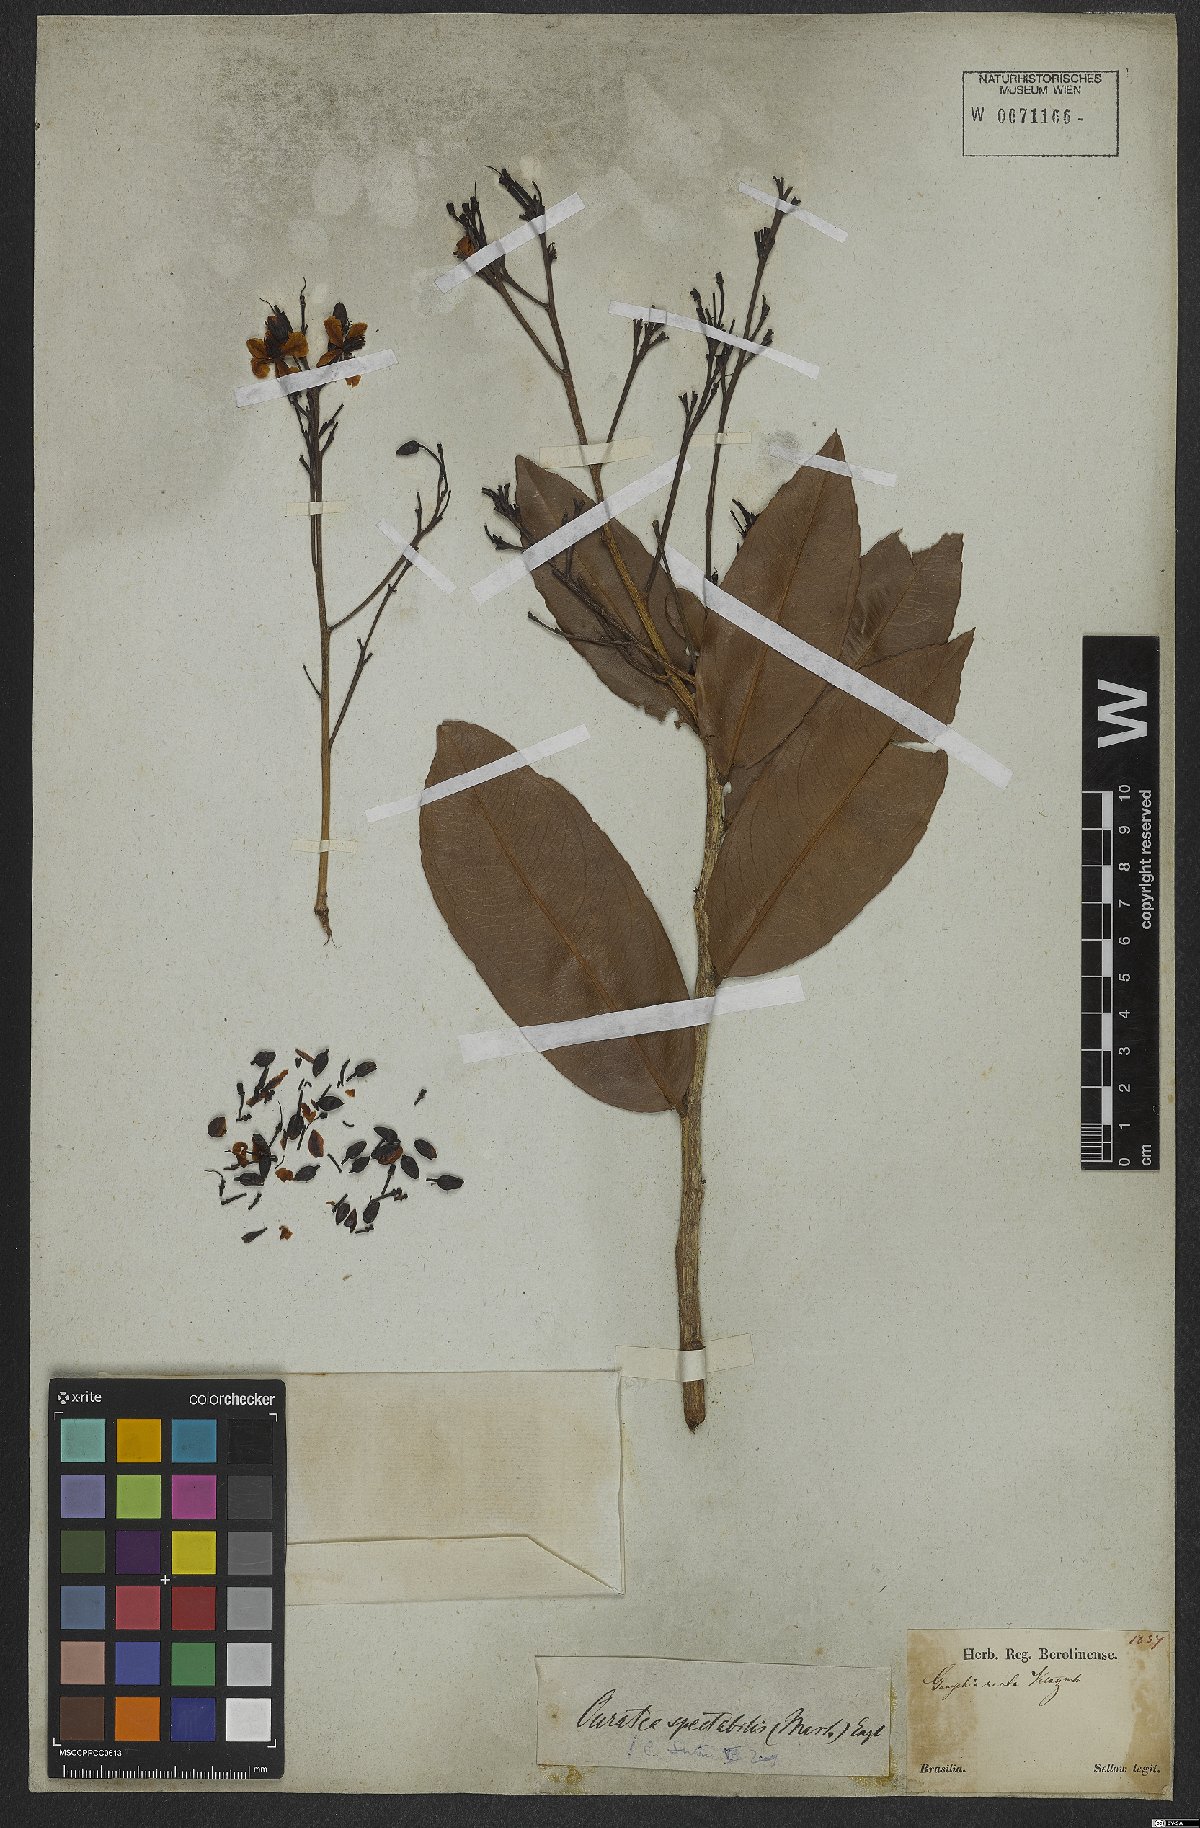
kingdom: Plantae
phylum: Tracheophyta
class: Magnoliopsida
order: Malpighiales
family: Ochnaceae
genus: Ouratea
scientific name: Ouratea spectabilis
